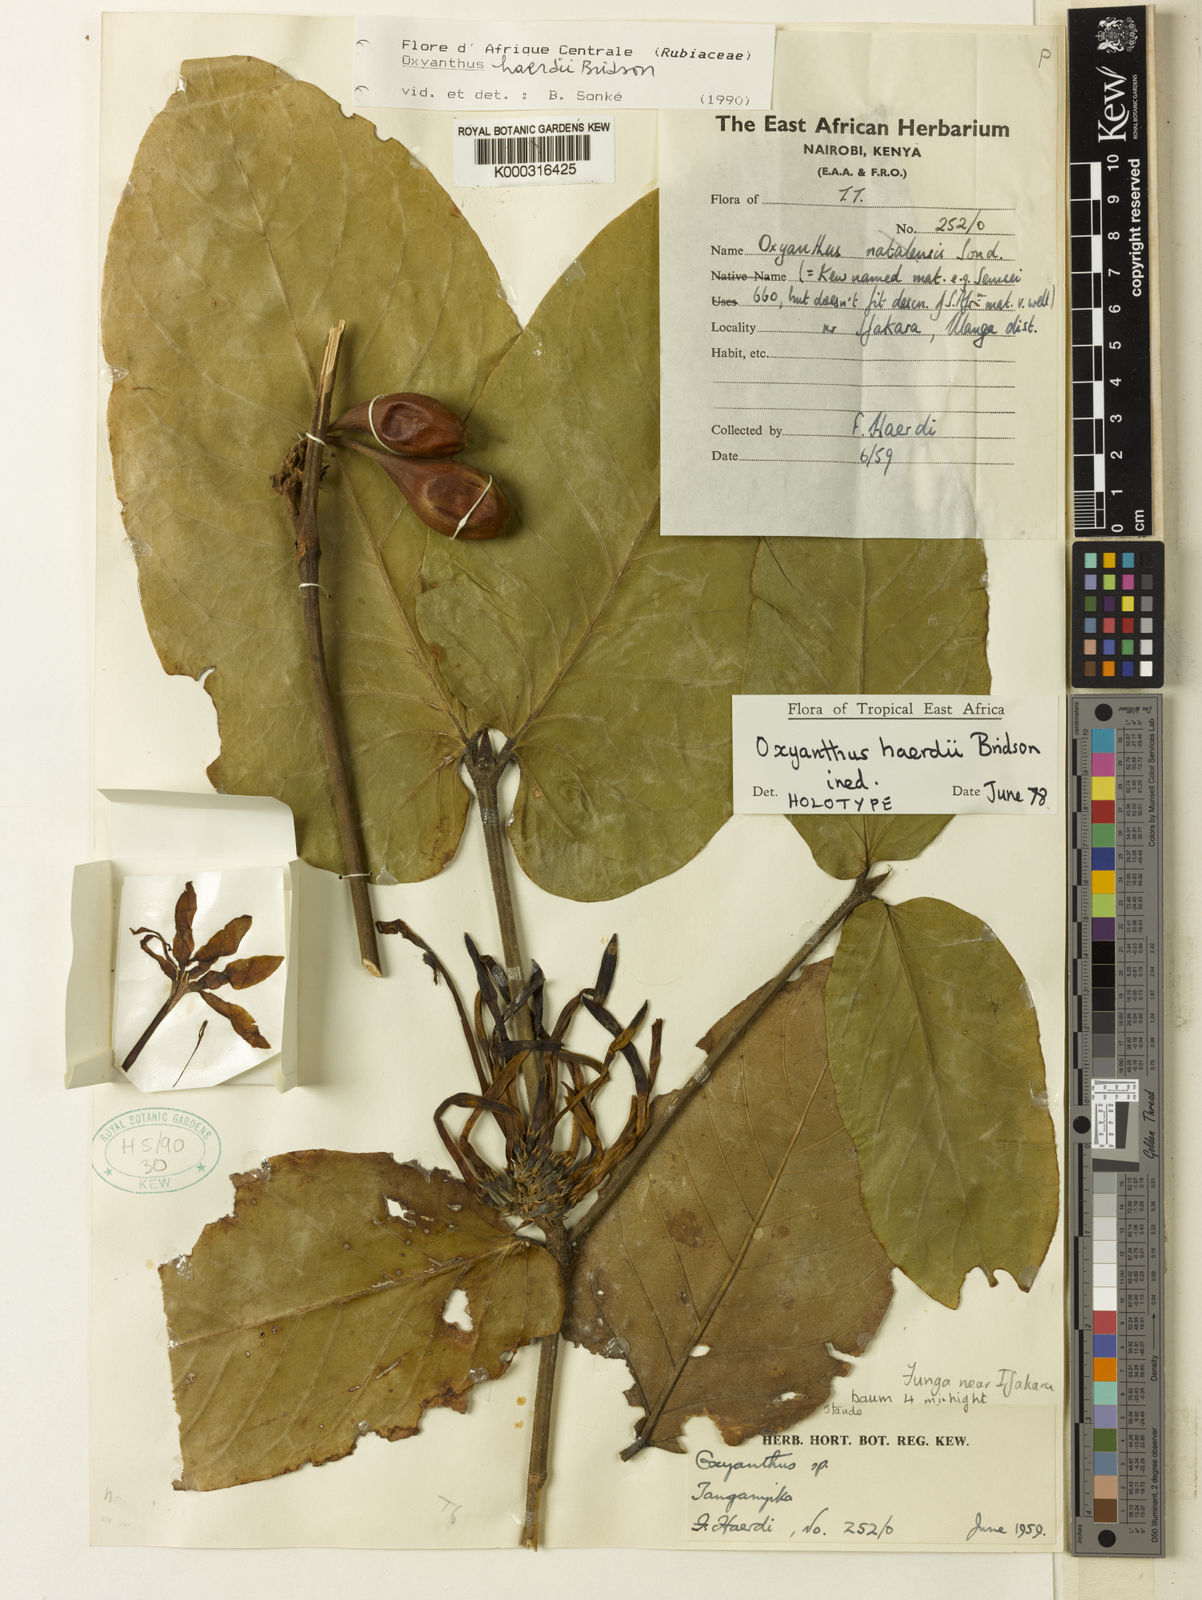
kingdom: Plantae
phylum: Tracheophyta
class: Magnoliopsida
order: Gentianales
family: Rubiaceae
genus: Oxyanthus
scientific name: Oxyanthus haerdii
